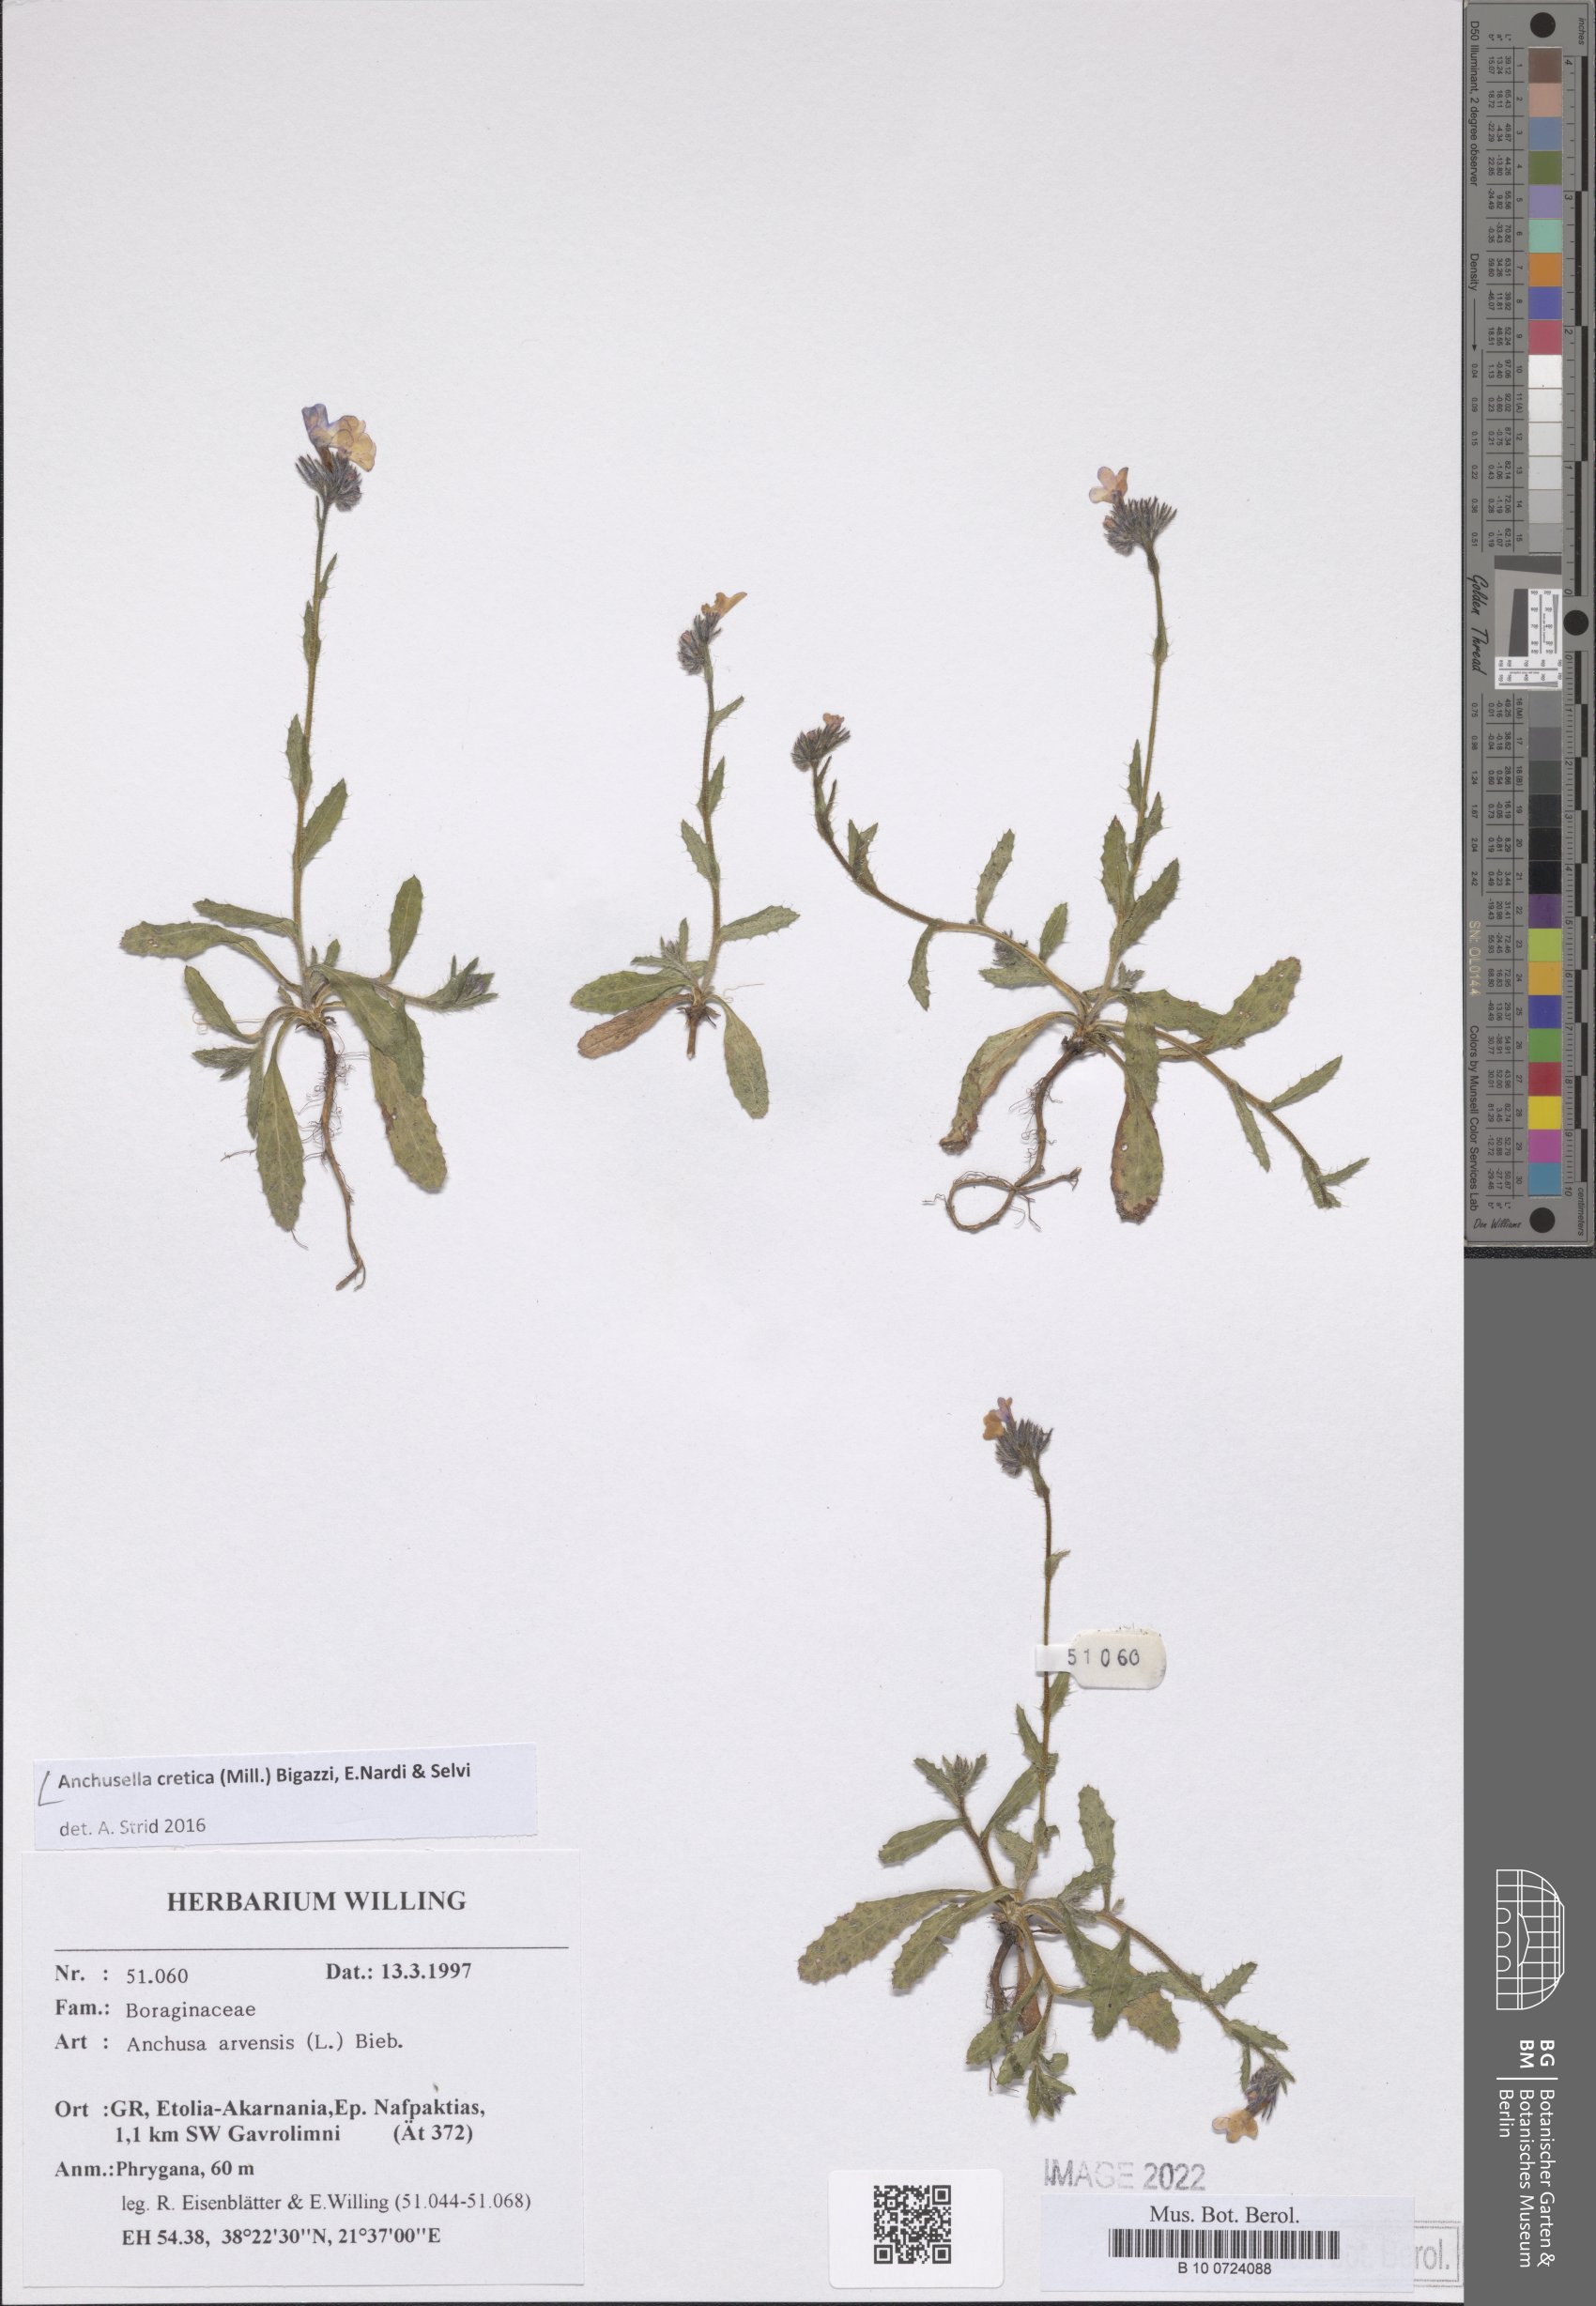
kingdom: Plantae
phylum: Tracheophyta
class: Magnoliopsida
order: Boraginales
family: Boraginaceae
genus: Anchusella
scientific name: Anchusella cretica
